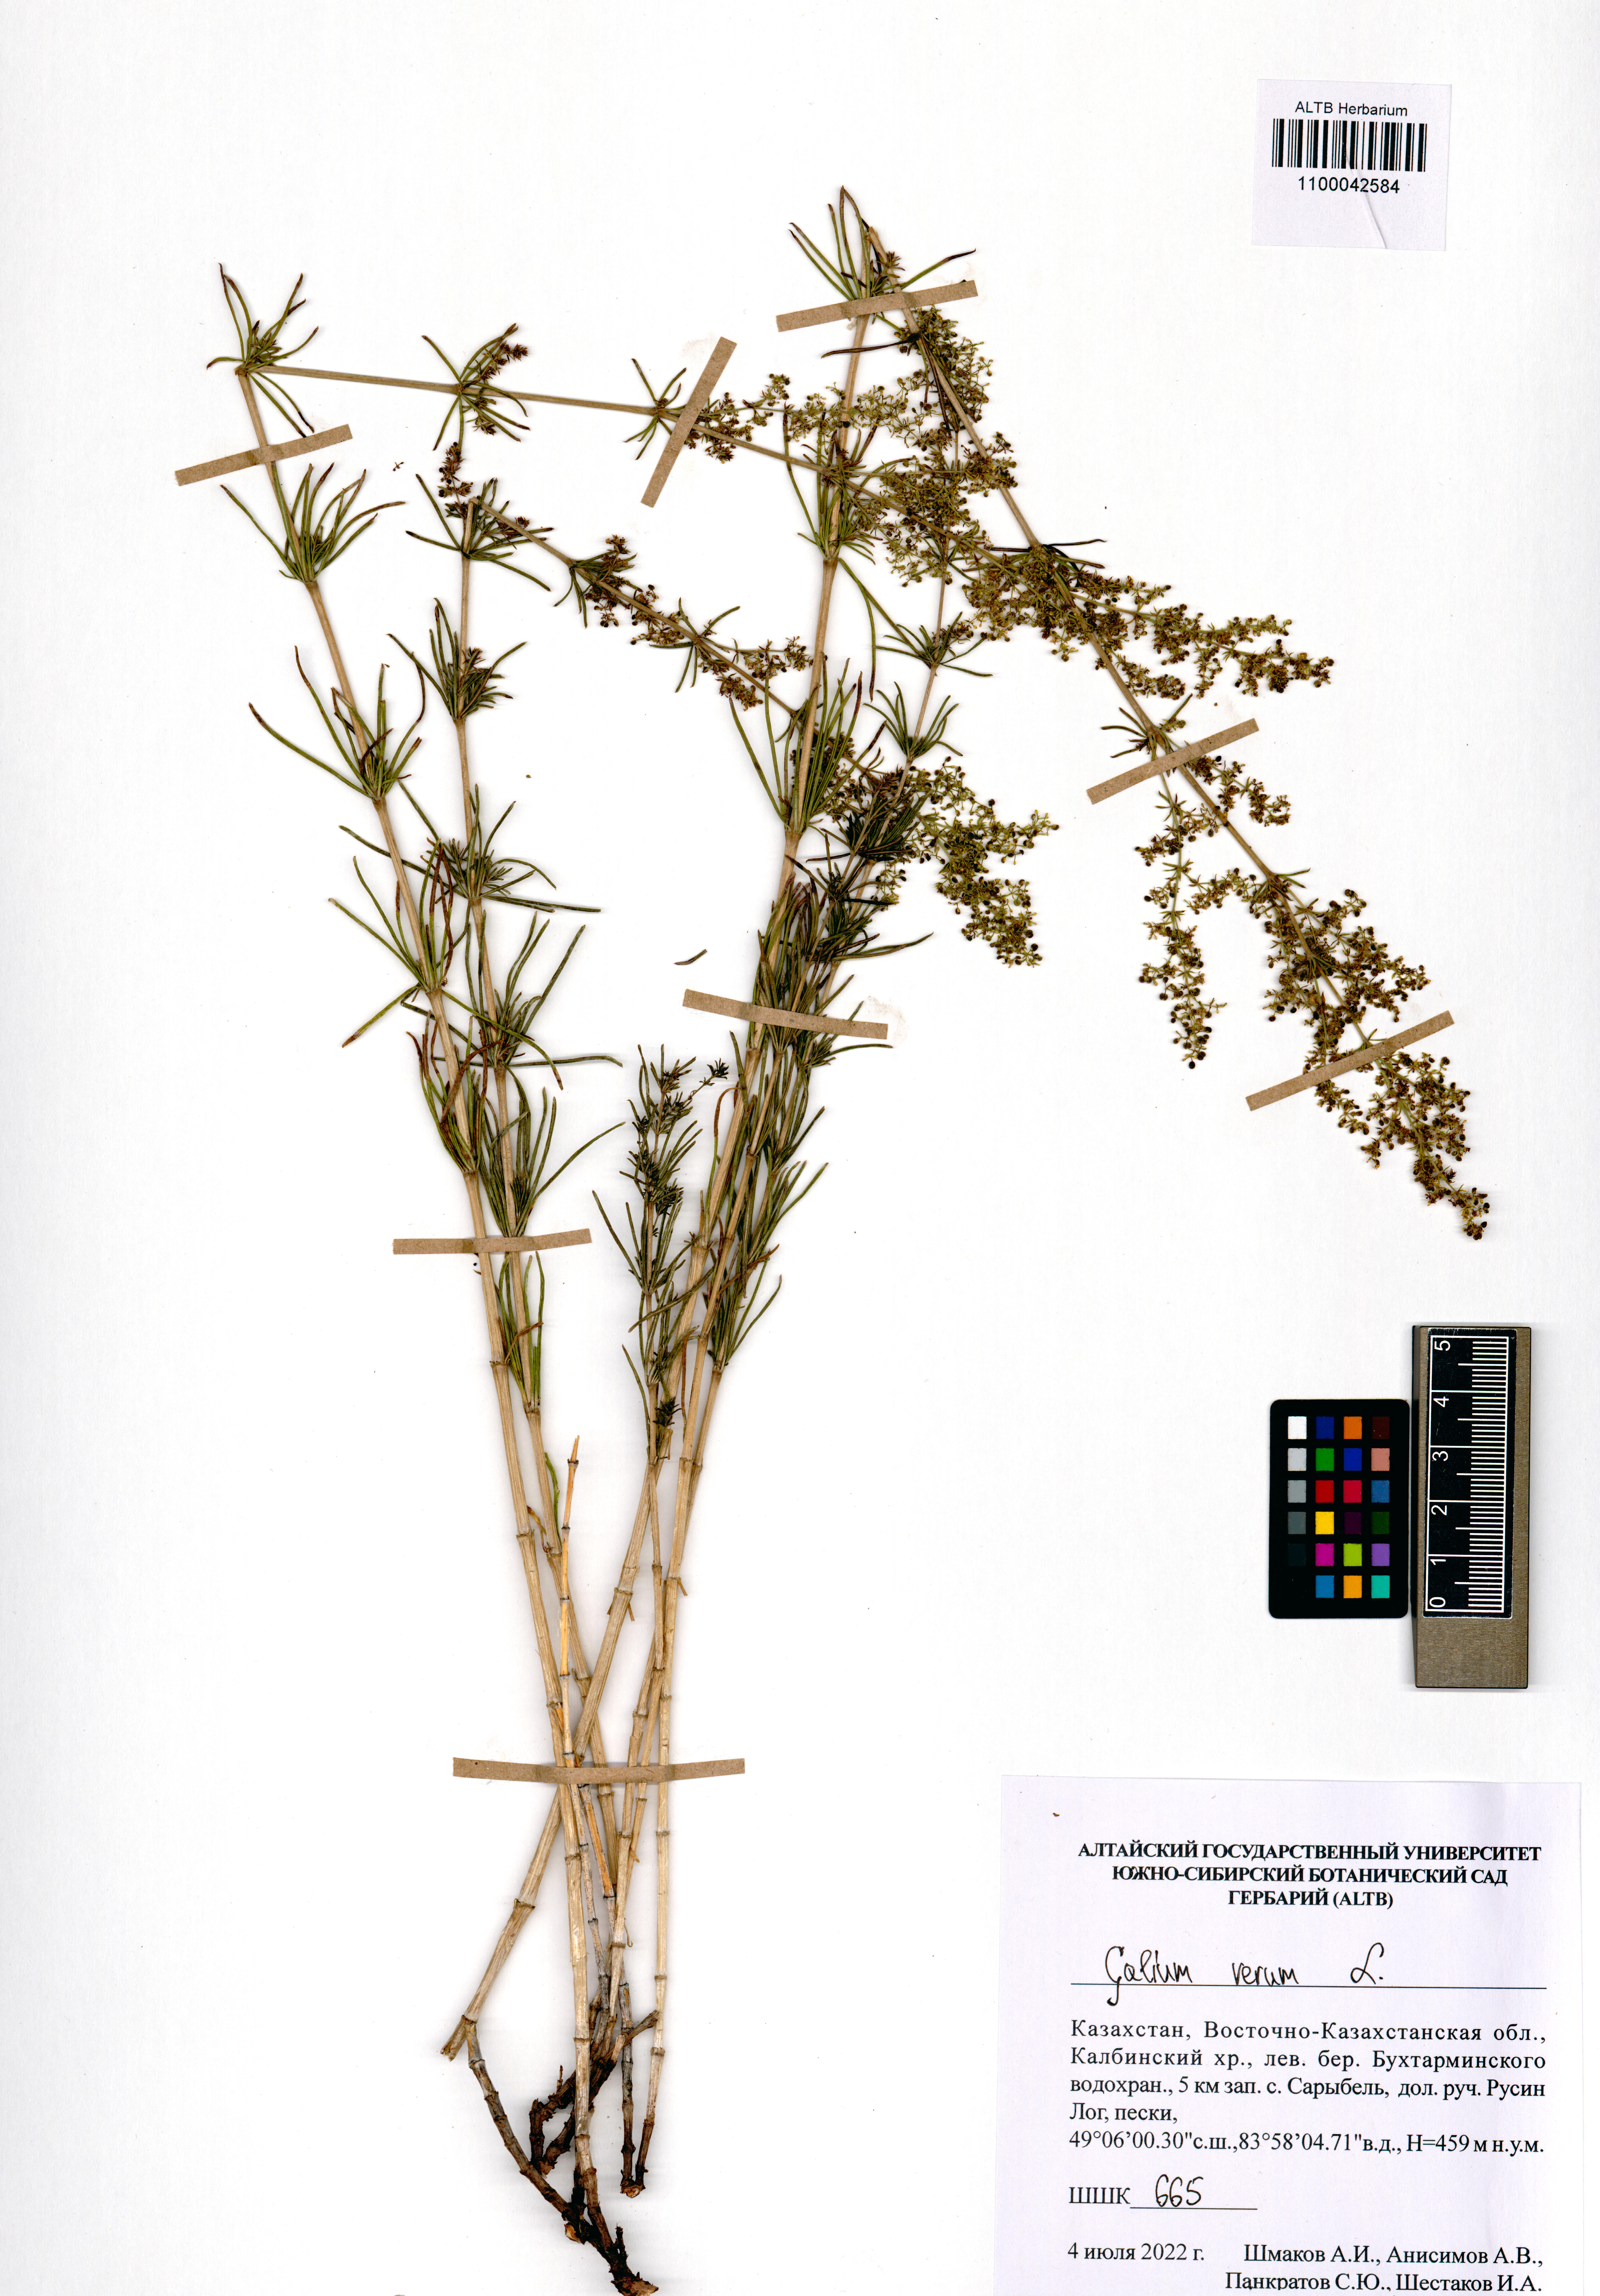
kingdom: Plantae
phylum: Tracheophyta
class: Magnoliopsida
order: Gentianales
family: Rubiaceae
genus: Galium
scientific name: Galium verum
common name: Lady's bedstraw
